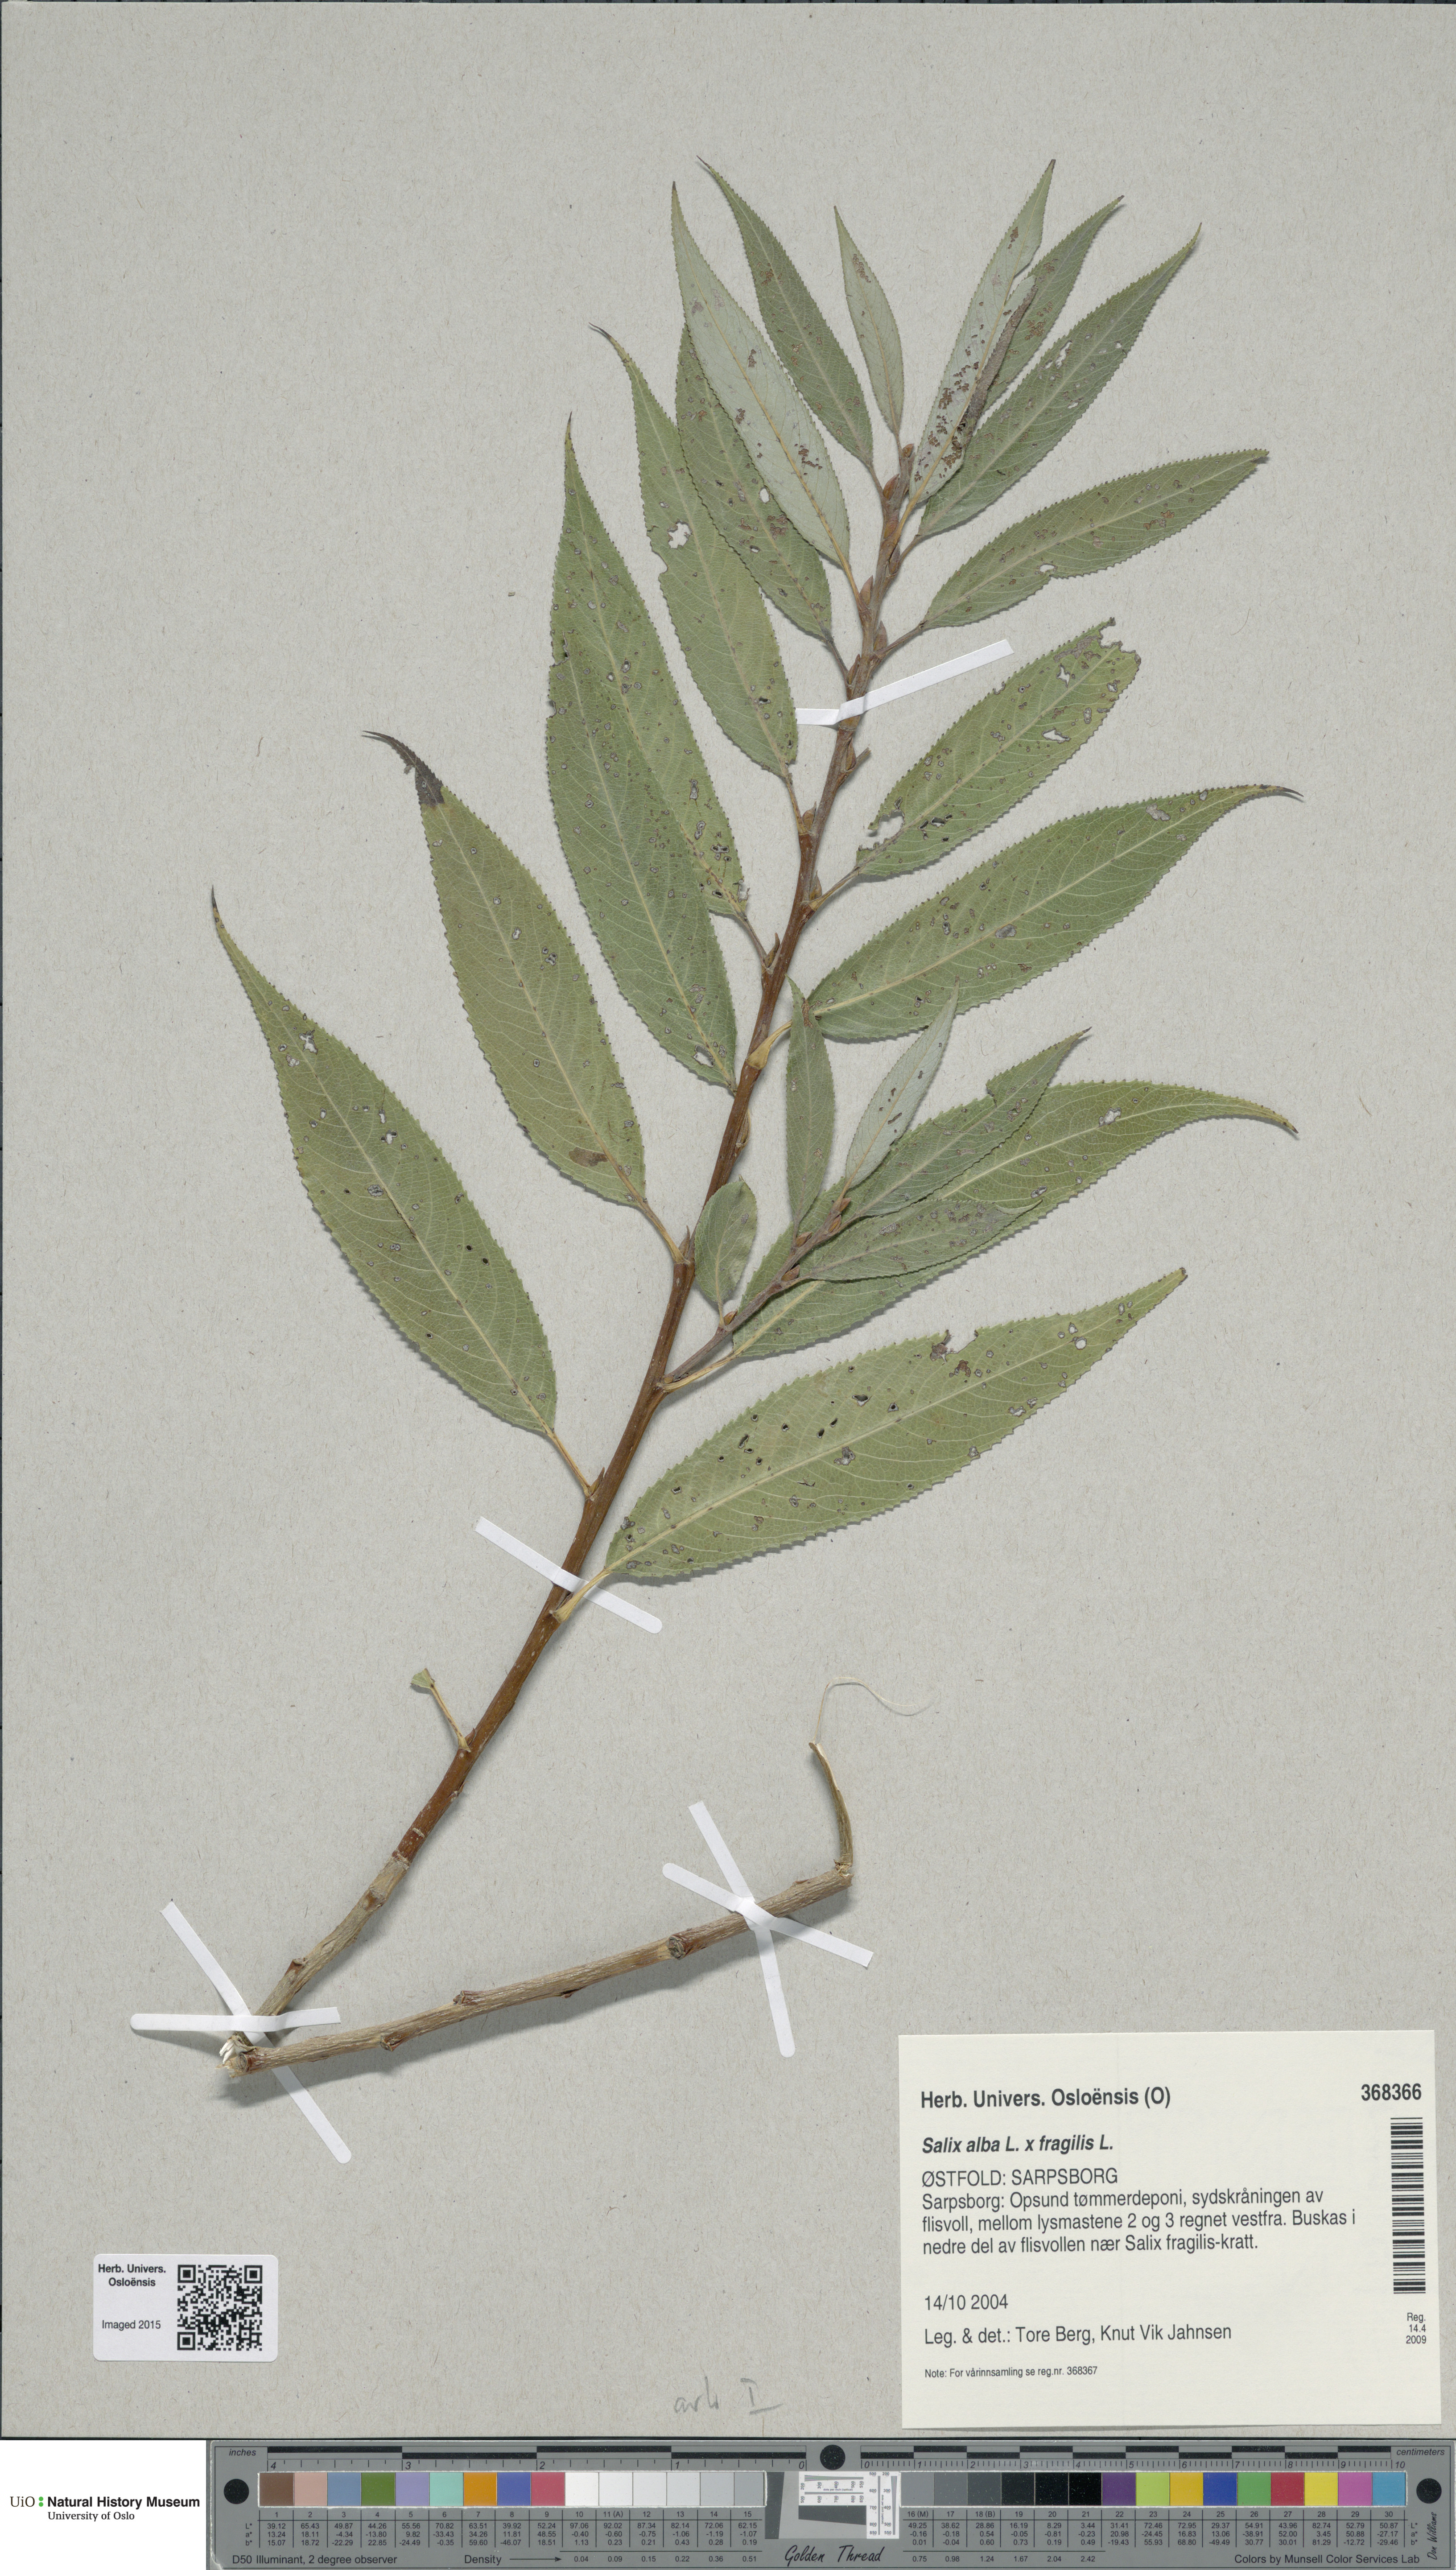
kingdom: Plantae
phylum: Tracheophyta
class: Magnoliopsida
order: Malpighiales
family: Salicaceae
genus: Salix
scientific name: Salix
